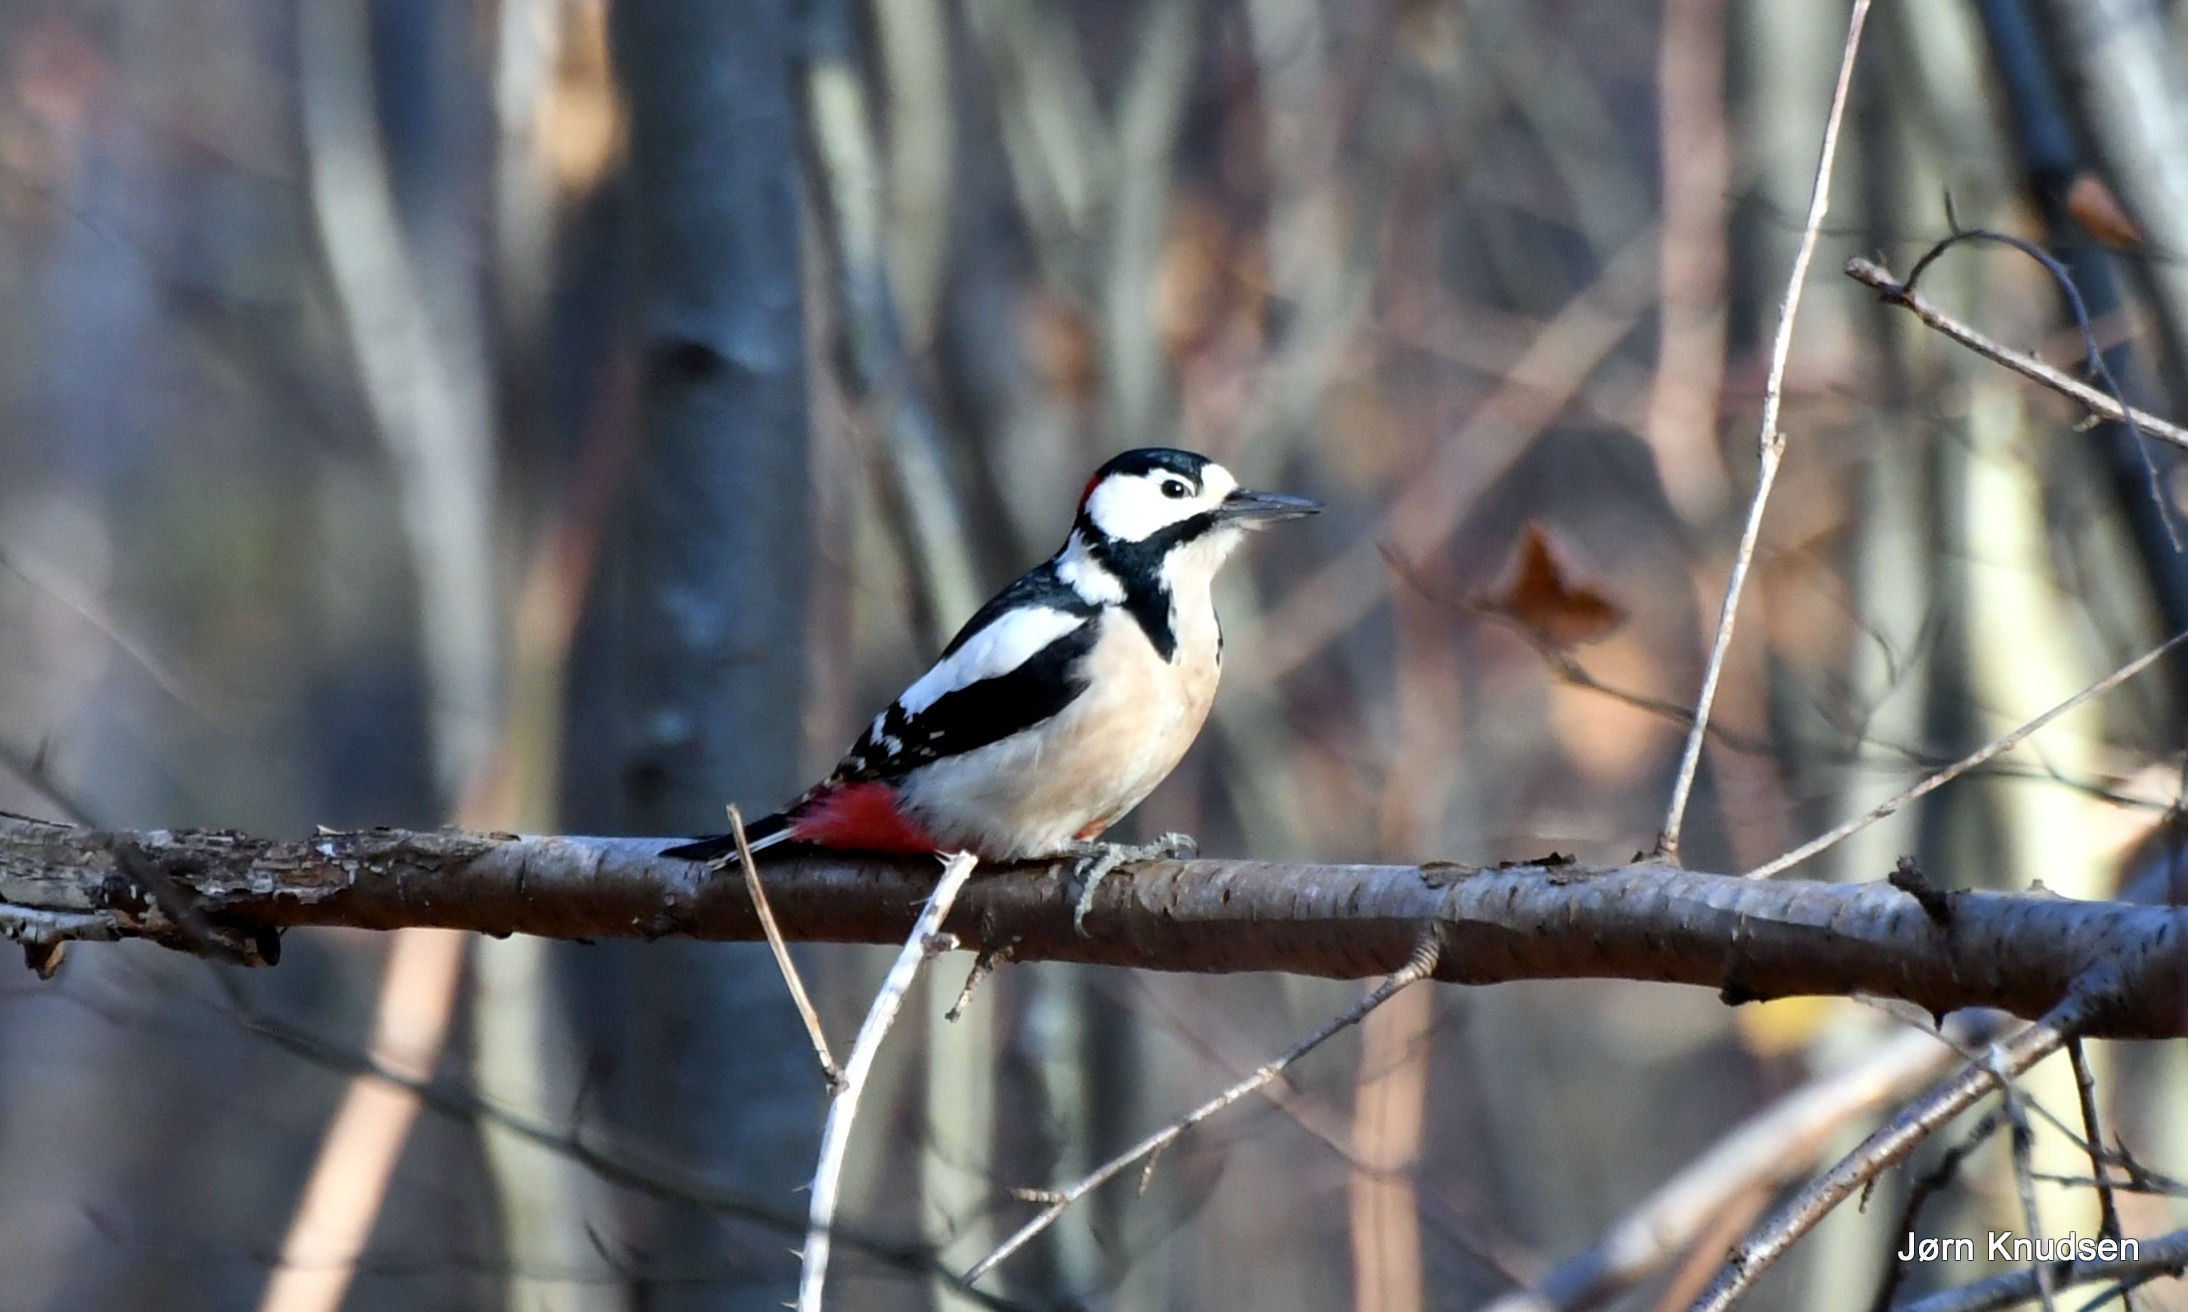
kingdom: Animalia
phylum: Chordata
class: Aves
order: Piciformes
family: Picidae
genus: Dendrocopos
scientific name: Dendrocopos major
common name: Stor flagspætte
